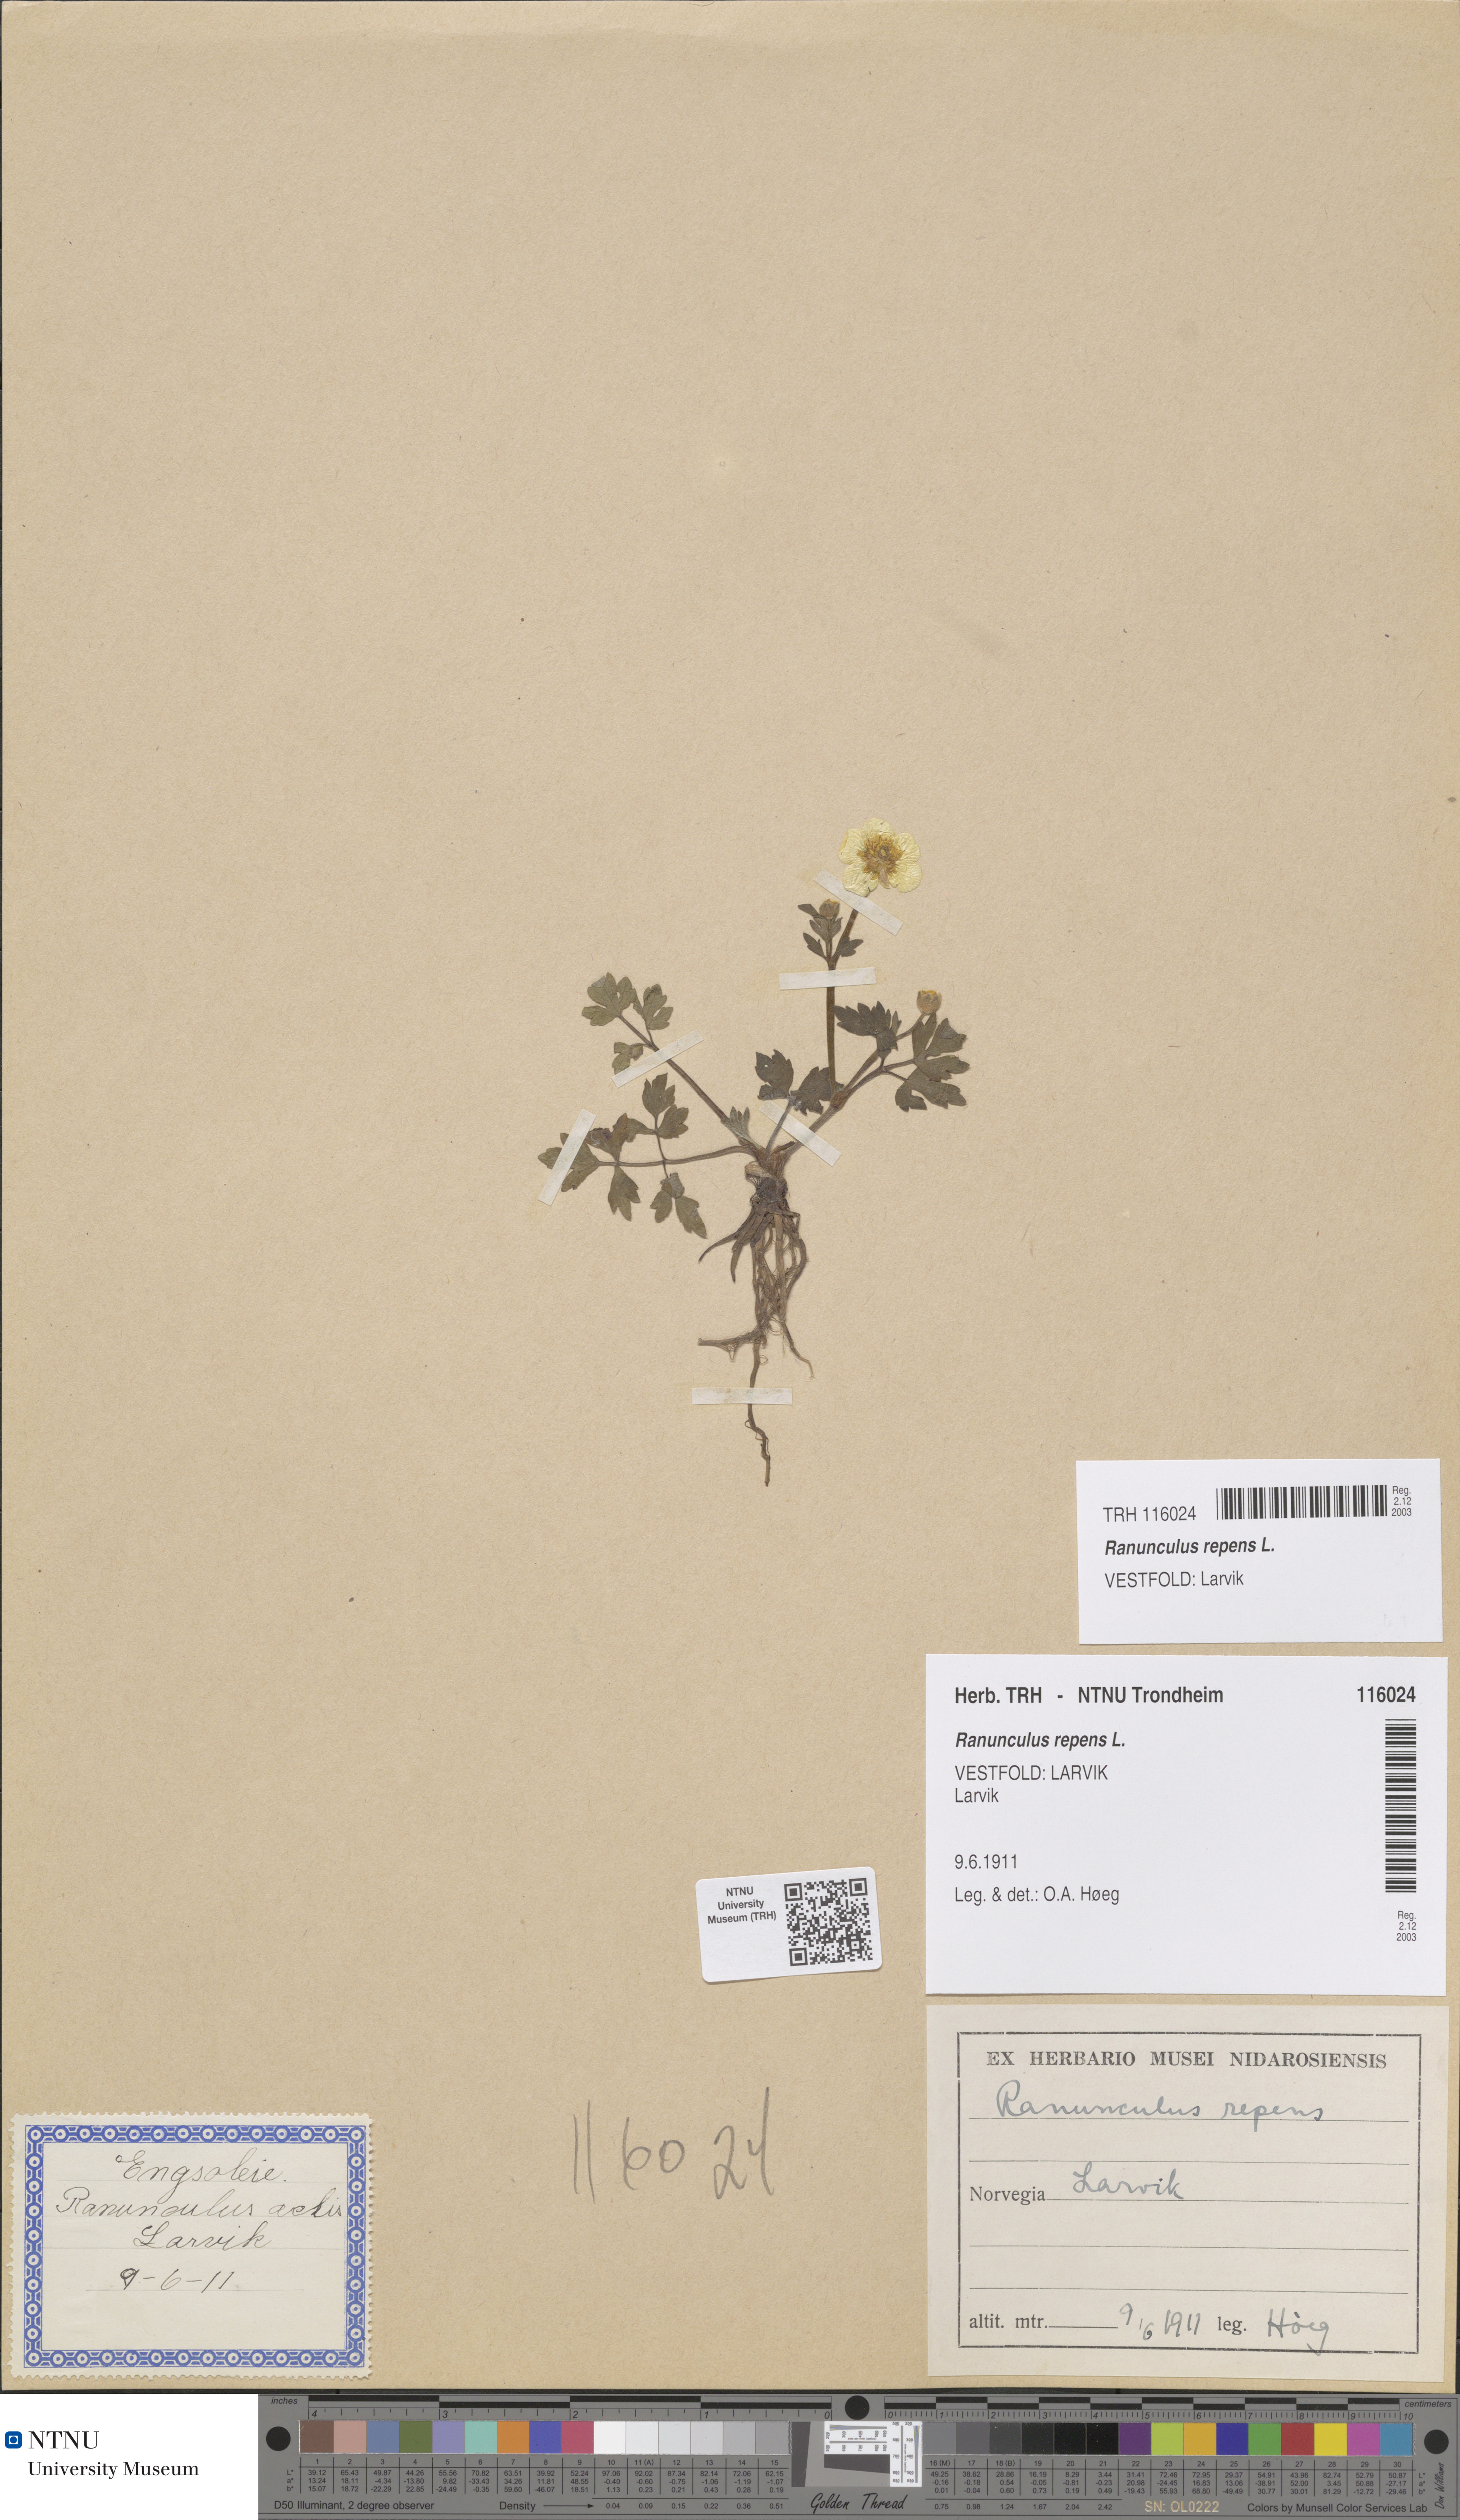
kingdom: Plantae
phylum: Tracheophyta
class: Magnoliopsida
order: Ranunculales
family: Ranunculaceae
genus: Ranunculus
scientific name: Ranunculus repens
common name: Creeping buttercup
